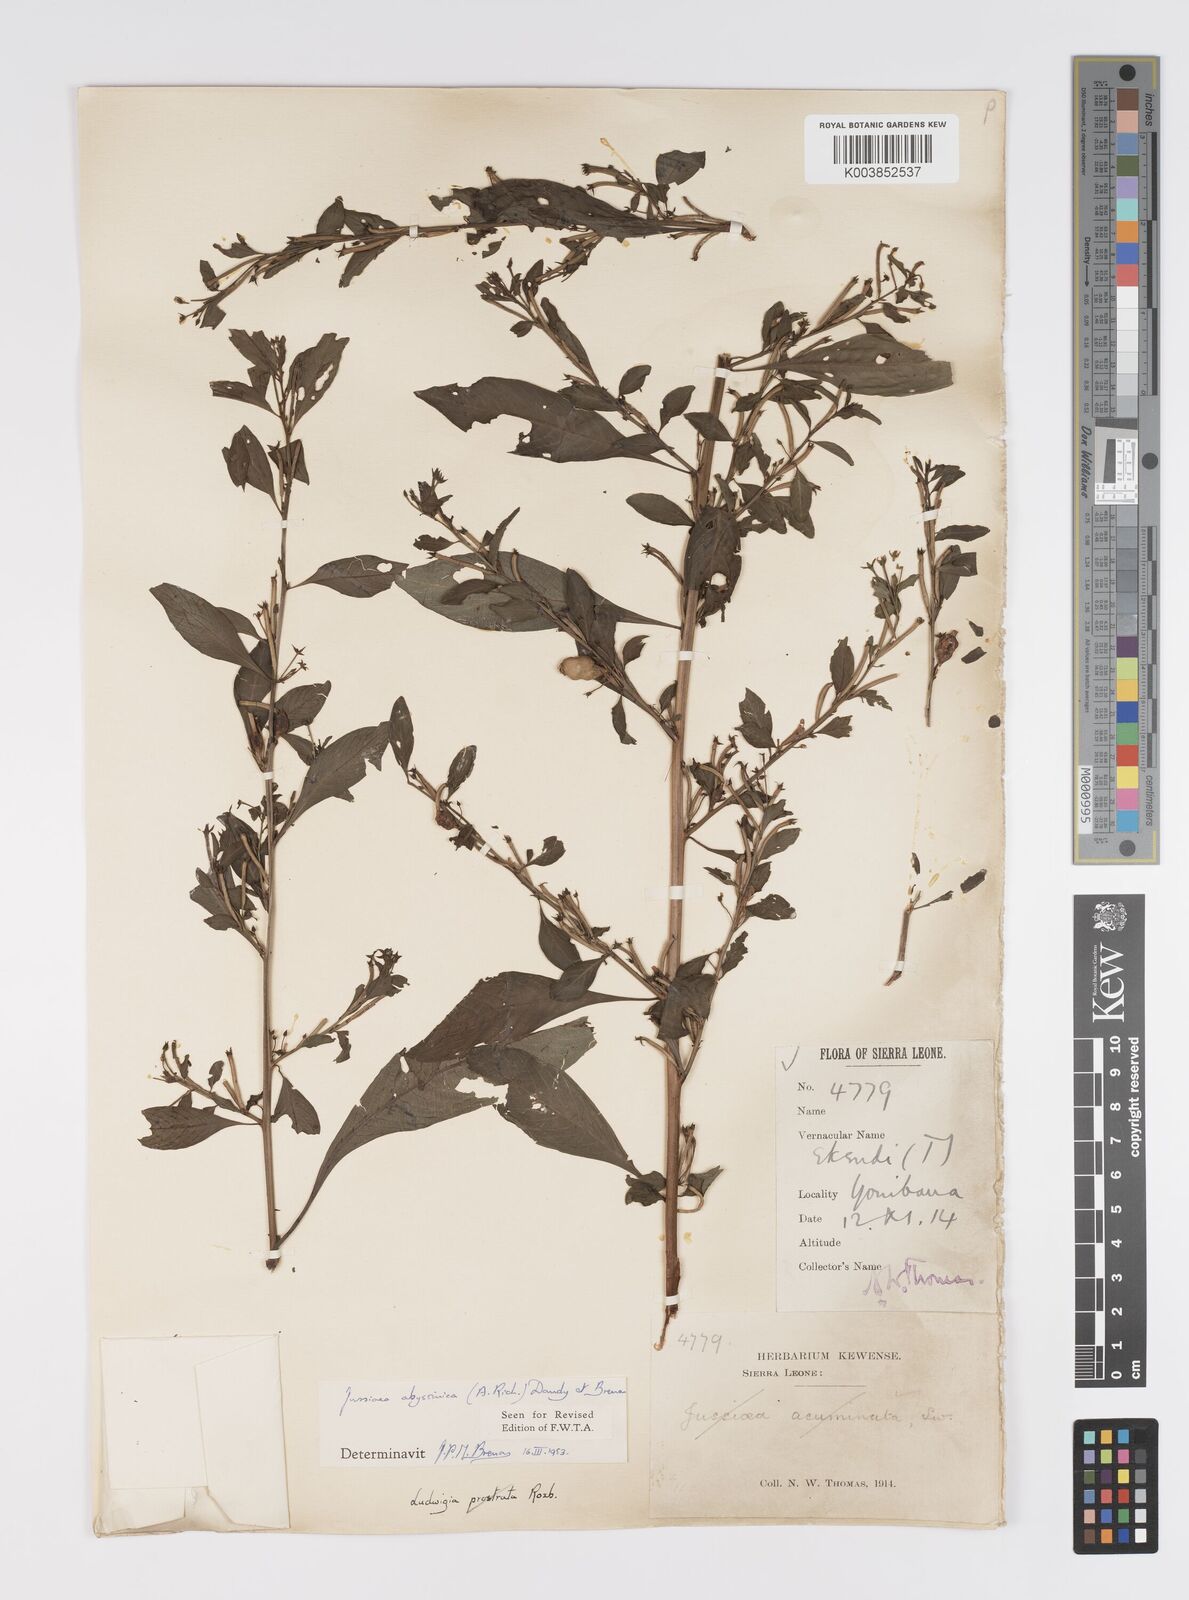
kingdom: Plantae
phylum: Tracheophyta
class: Magnoliopsida
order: Myrtales
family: Onagraceae
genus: Ludwigia
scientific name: Ludwigia abyssinica
